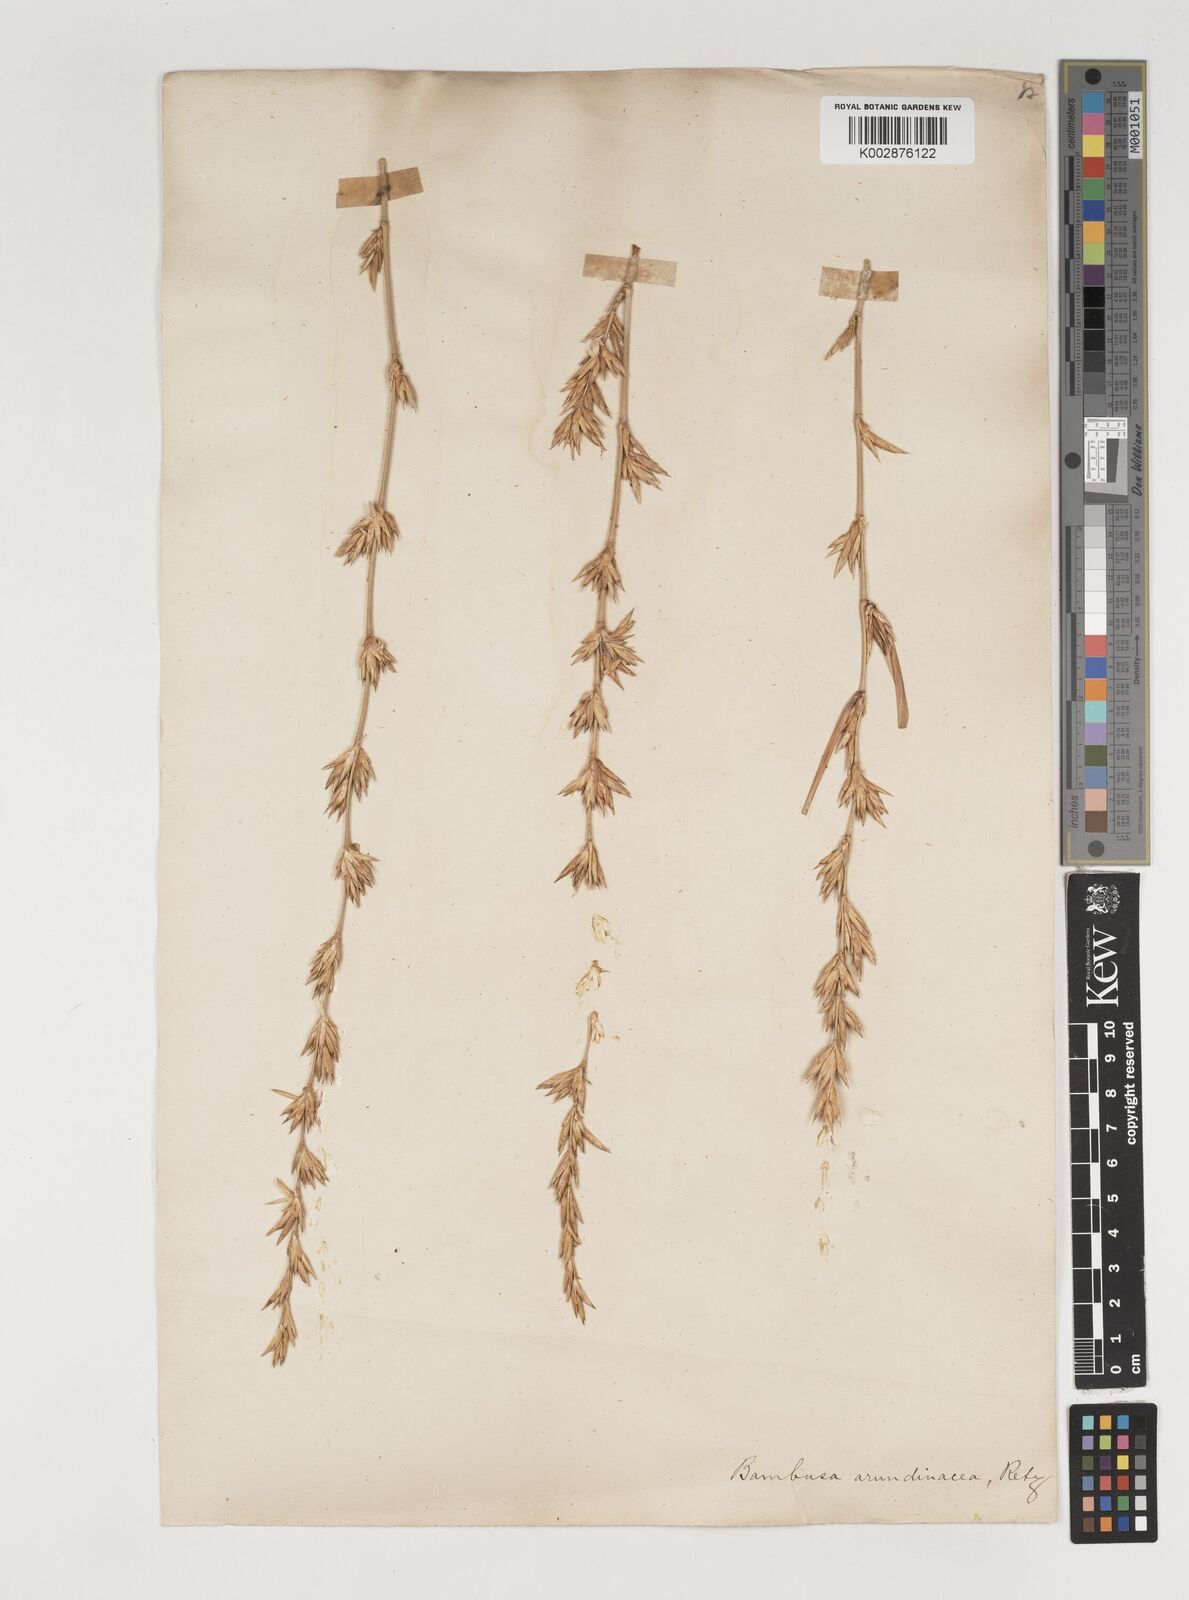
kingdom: Plantae
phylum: Tracheophyta
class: Liliopsida
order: Poales
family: Poaceae
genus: Bambusa
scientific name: Bambusa bambos
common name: Indian thorny bamboo
